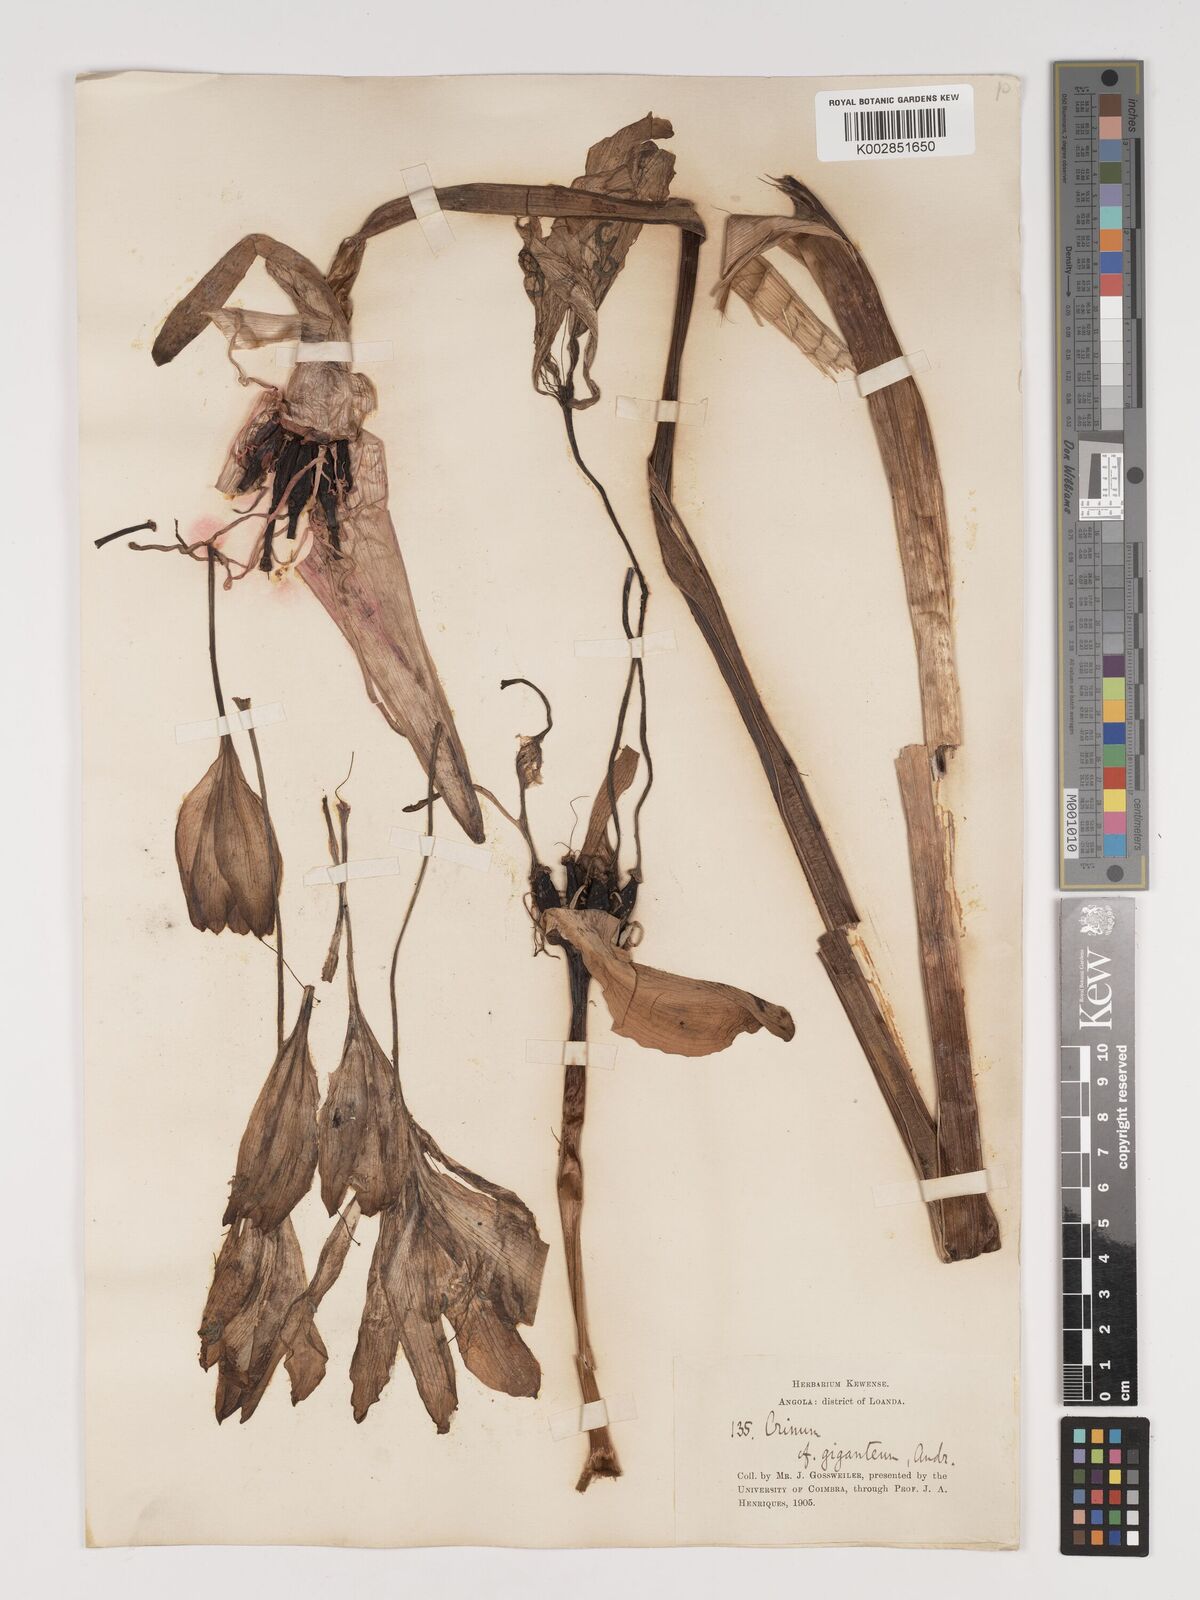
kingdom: Plantae
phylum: Tracheophyta
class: Liliopsida
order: Asparagales
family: Amaryllidaceae
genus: Crinum
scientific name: Crinum jagus
